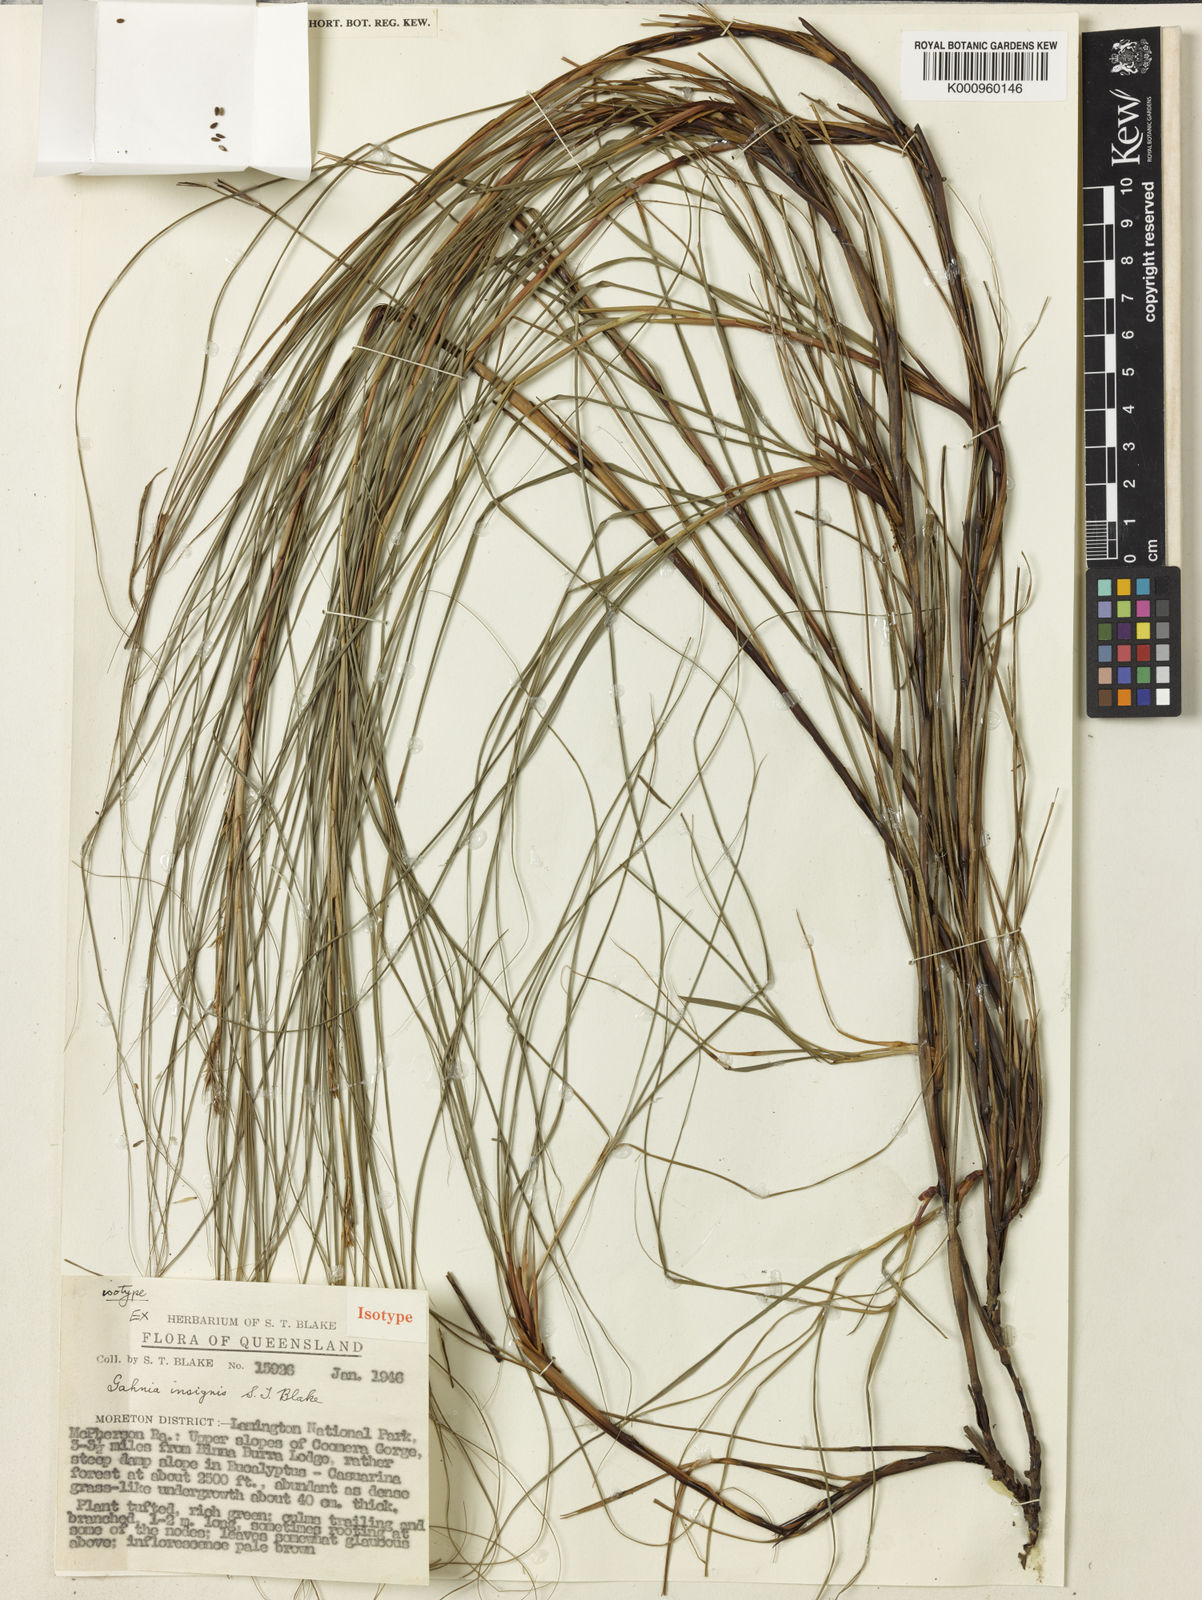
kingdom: Plantae
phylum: Tracheophyta
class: Liliopsida
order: Poales
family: Cyperaceae
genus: Gahnia
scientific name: Gahnia insignis
